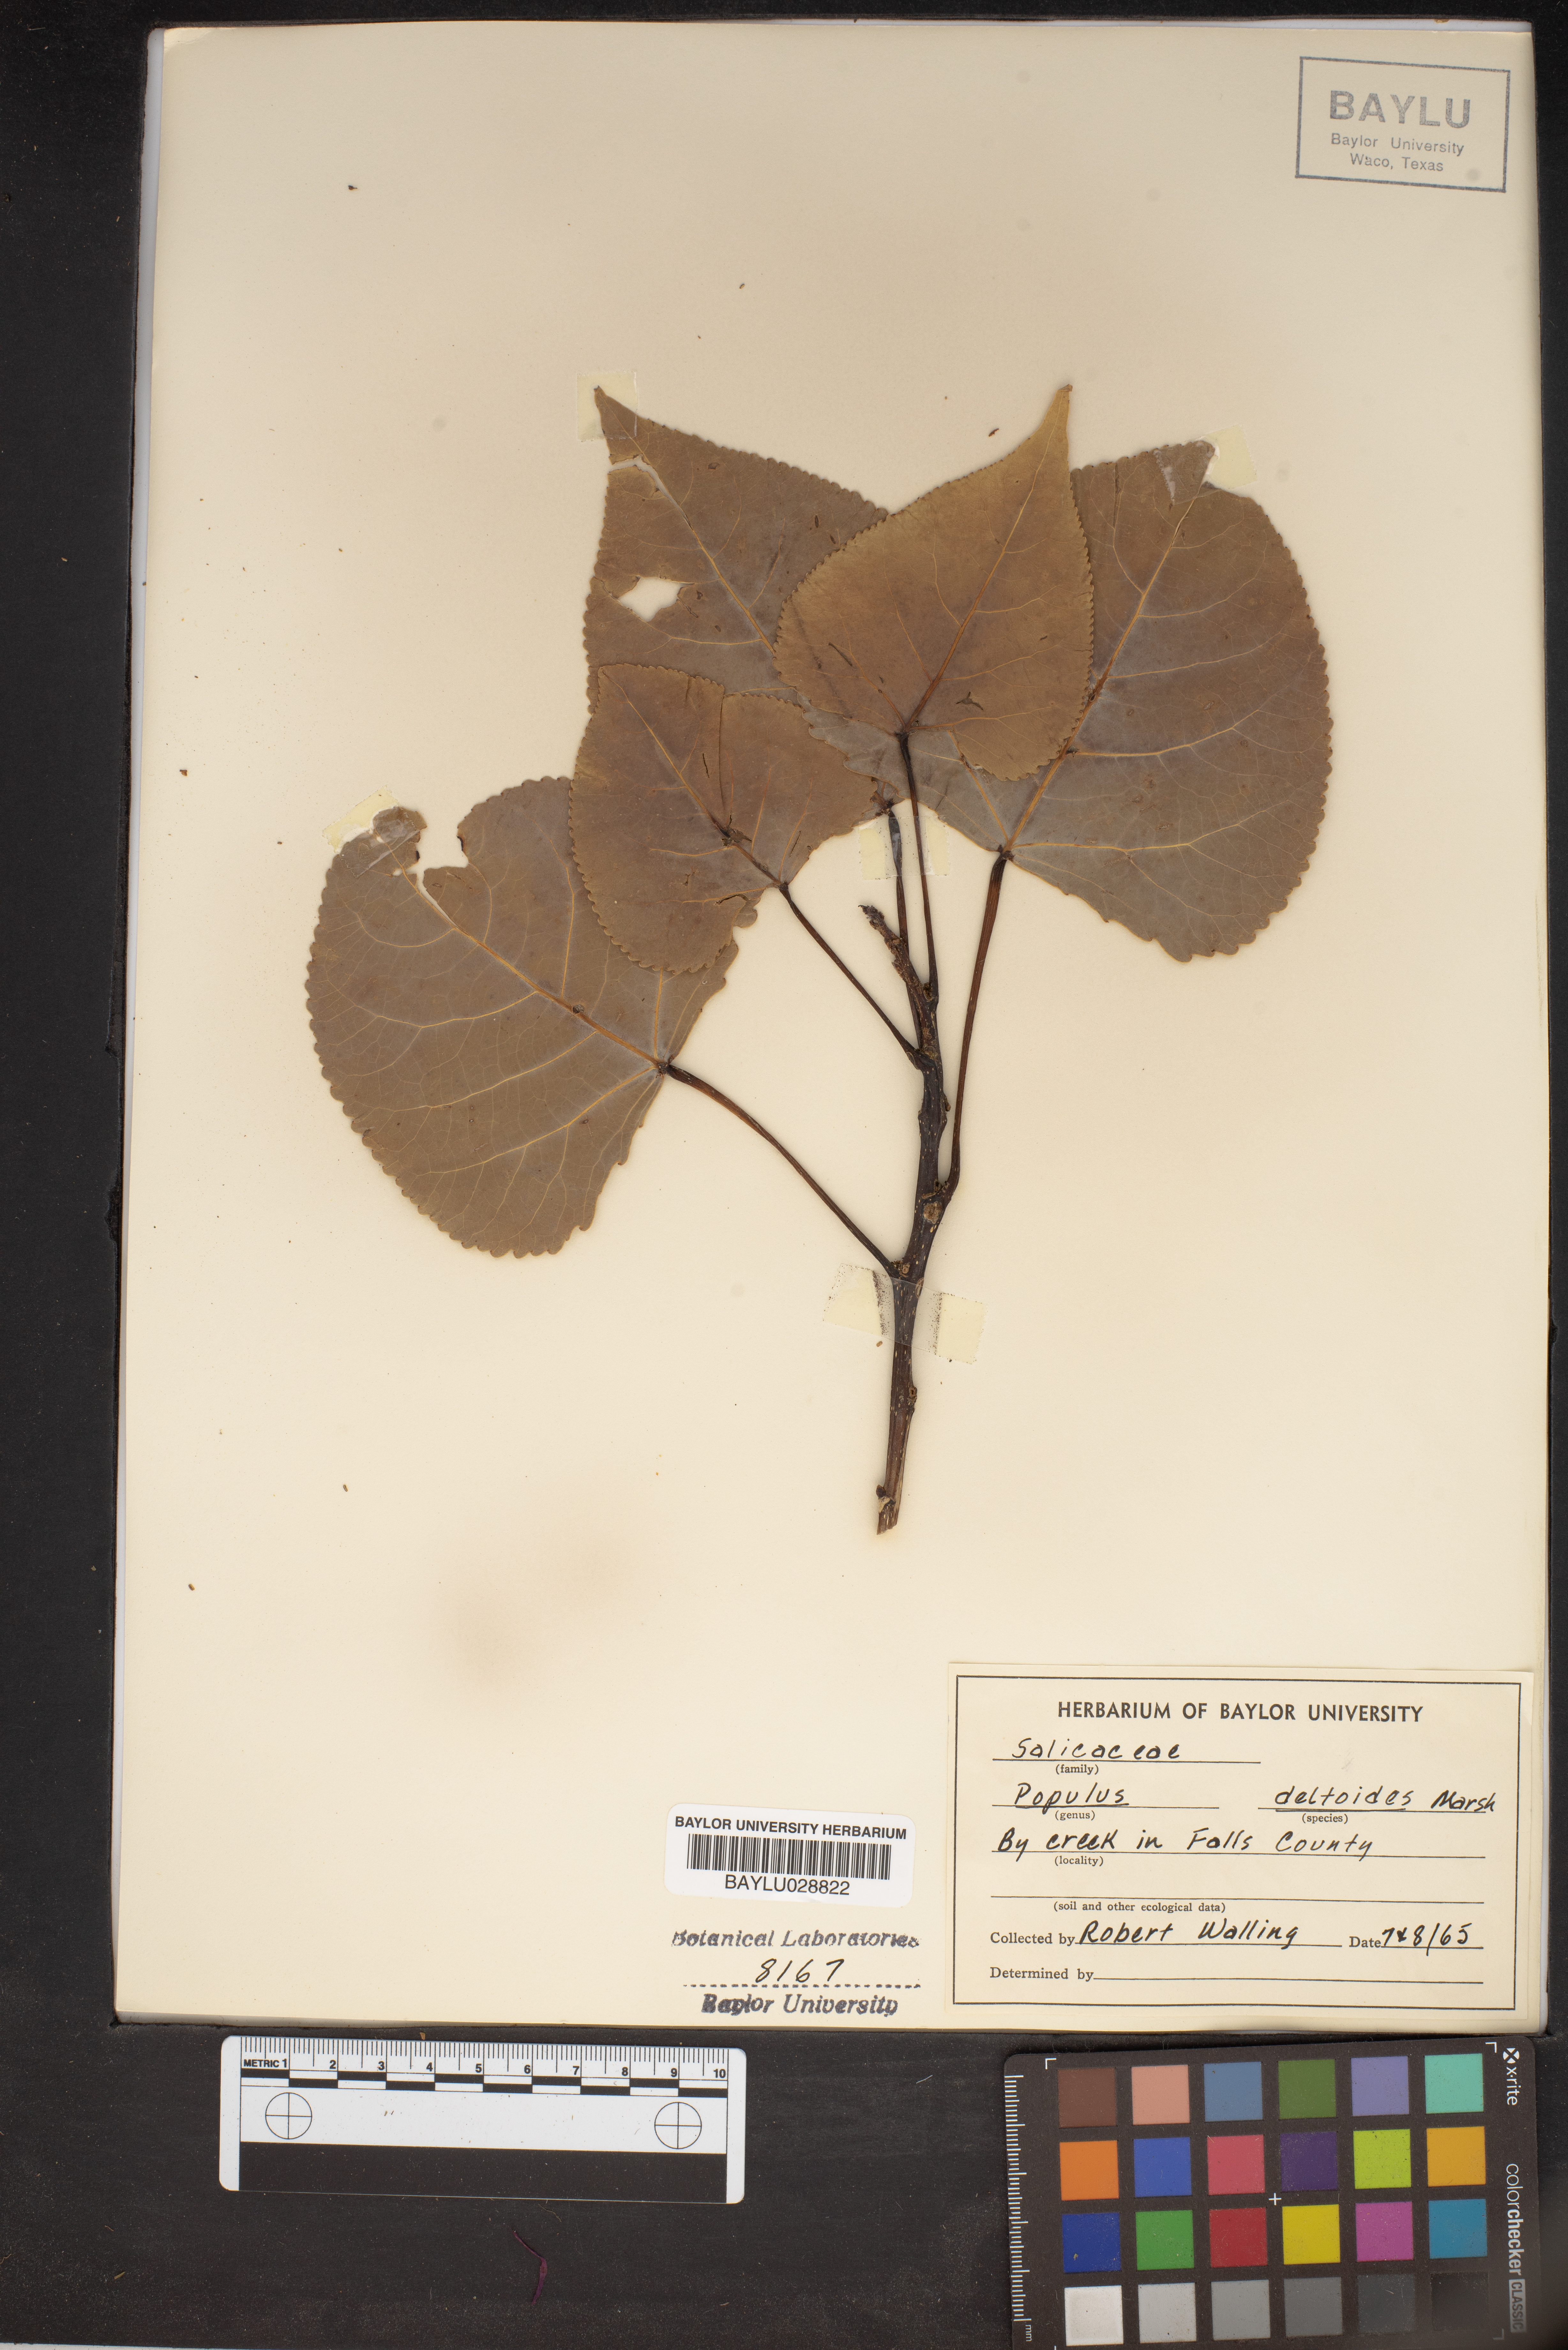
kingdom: Plantae
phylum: Tracheophyta
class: Magnoliopsida
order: Malpighiales
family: Salicaceae
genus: Populus
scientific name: Populus deltoides
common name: Eastern cottonwood
